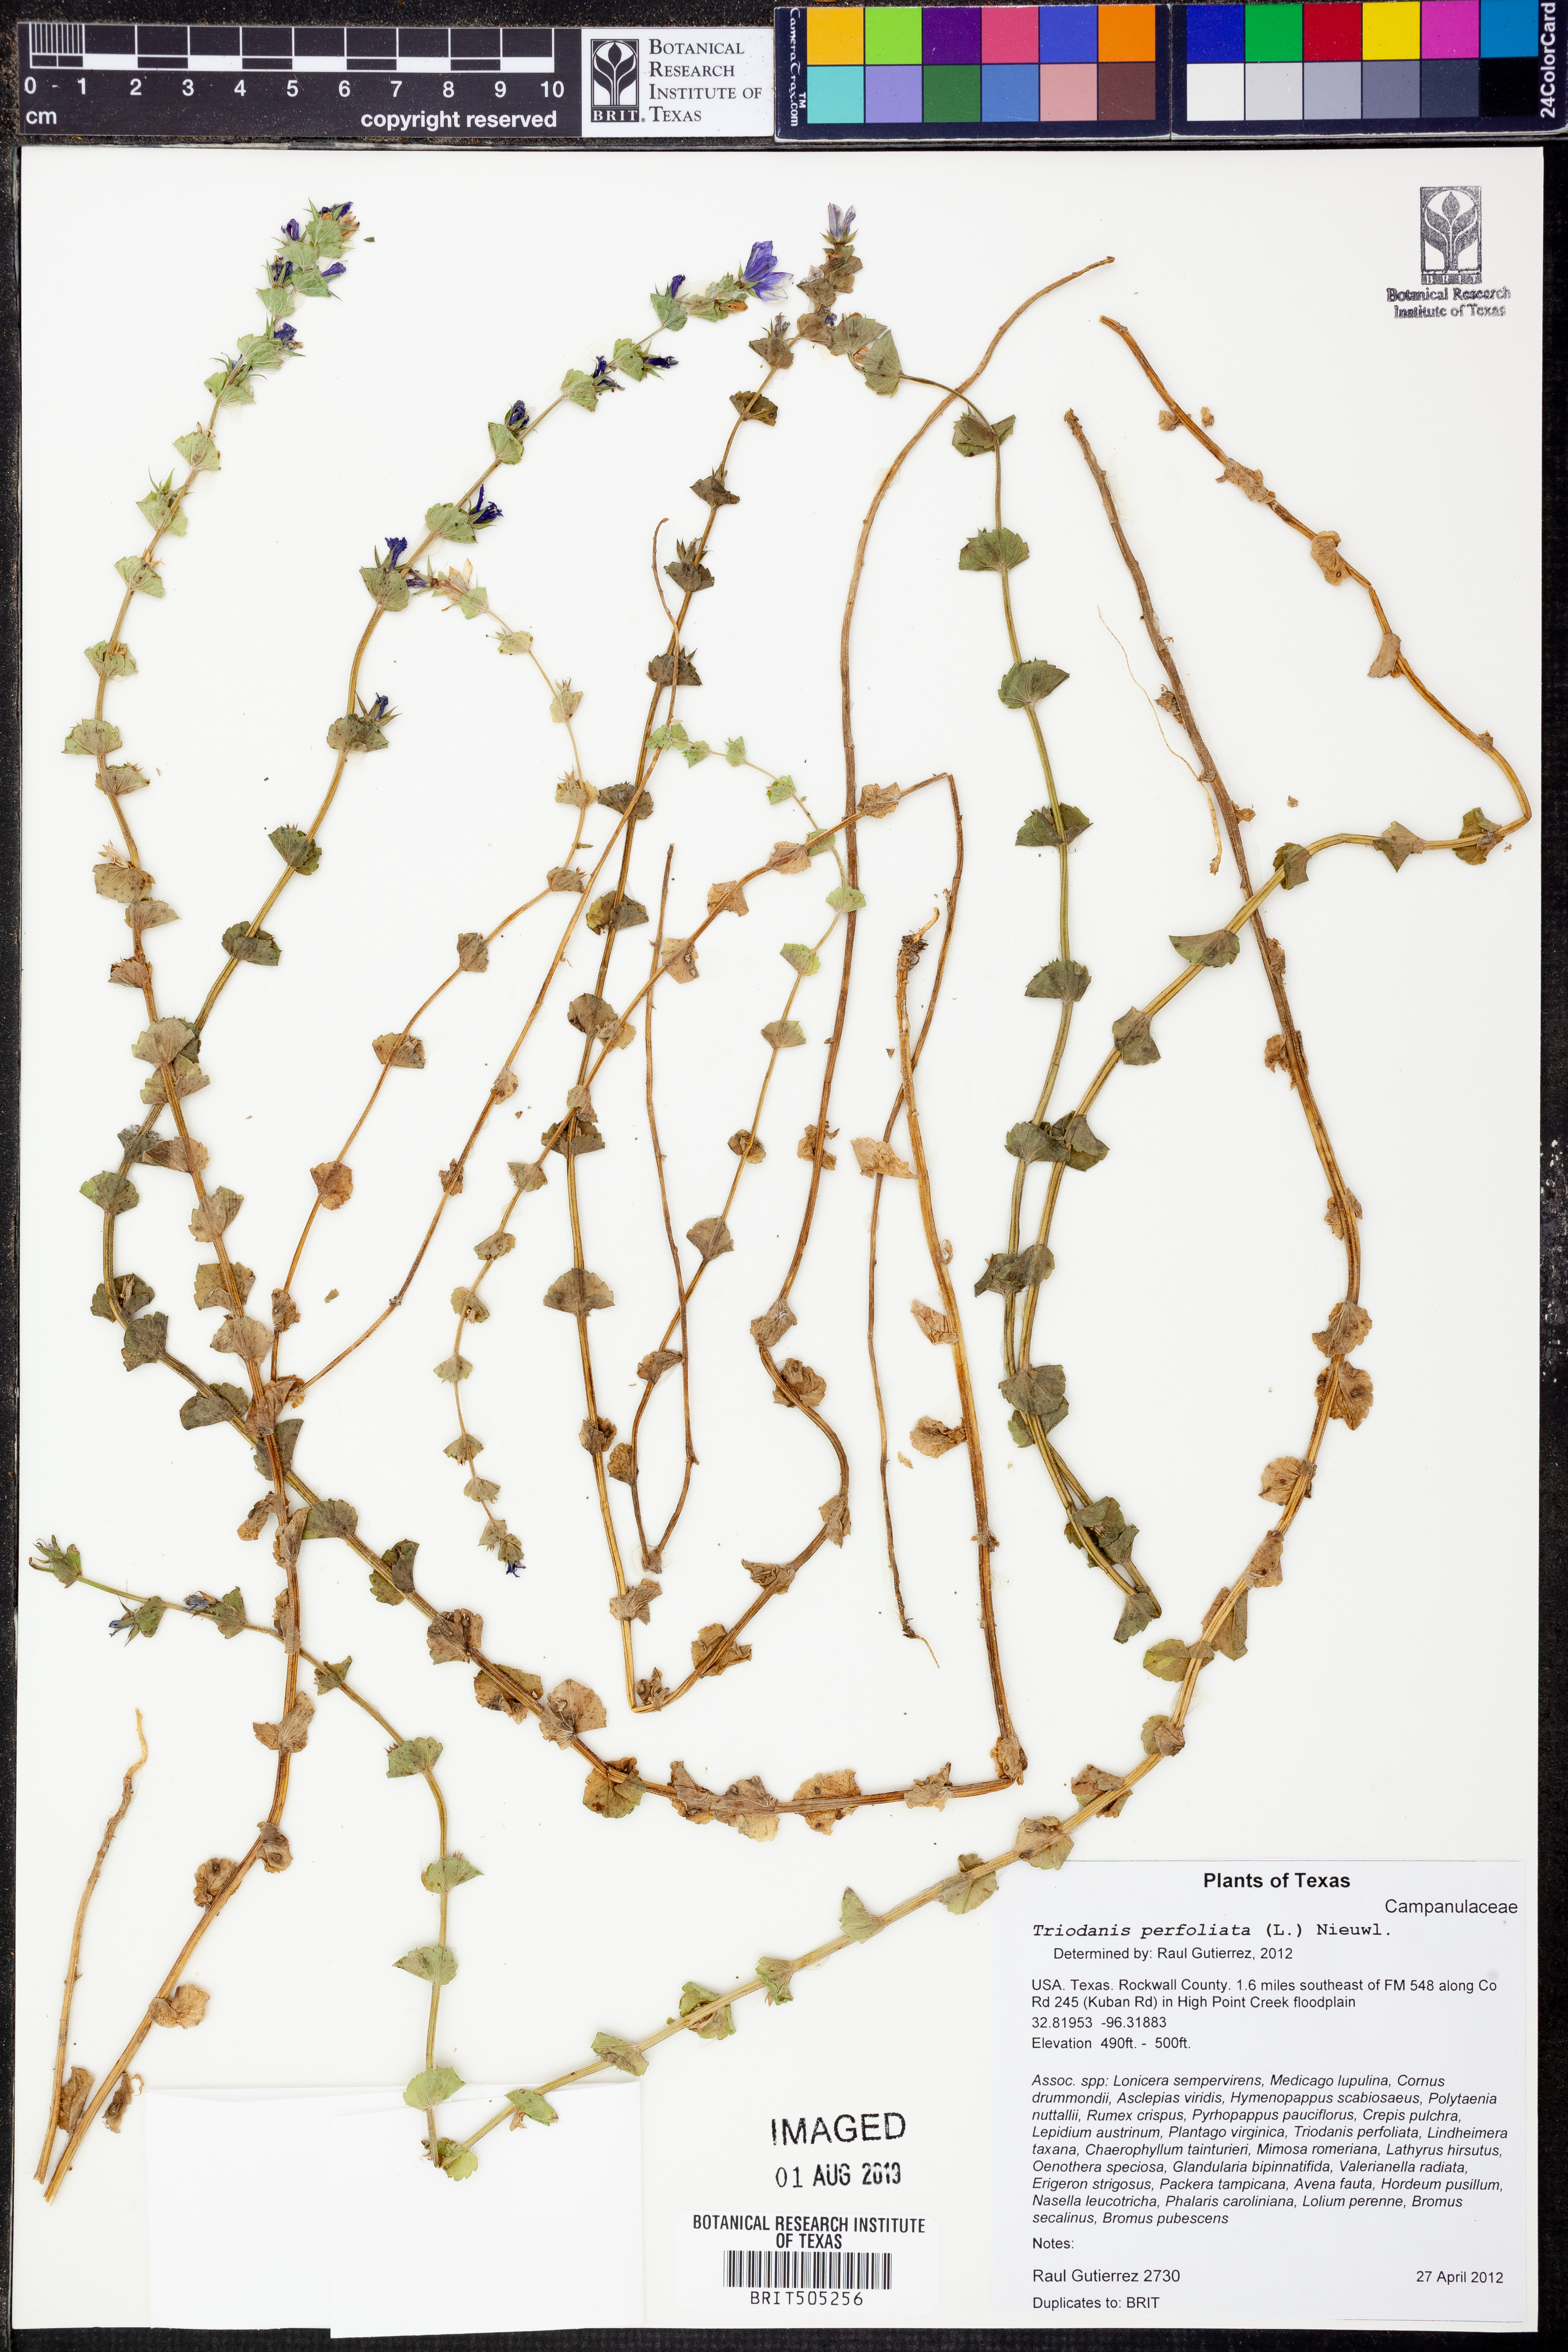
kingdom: Plantae
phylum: Tracheophyta
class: Magnoliopsida
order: Asterales
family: Campanulaceae
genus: Triodanis
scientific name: Triodanis perfoliata
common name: Clasping venus' looking-glass
